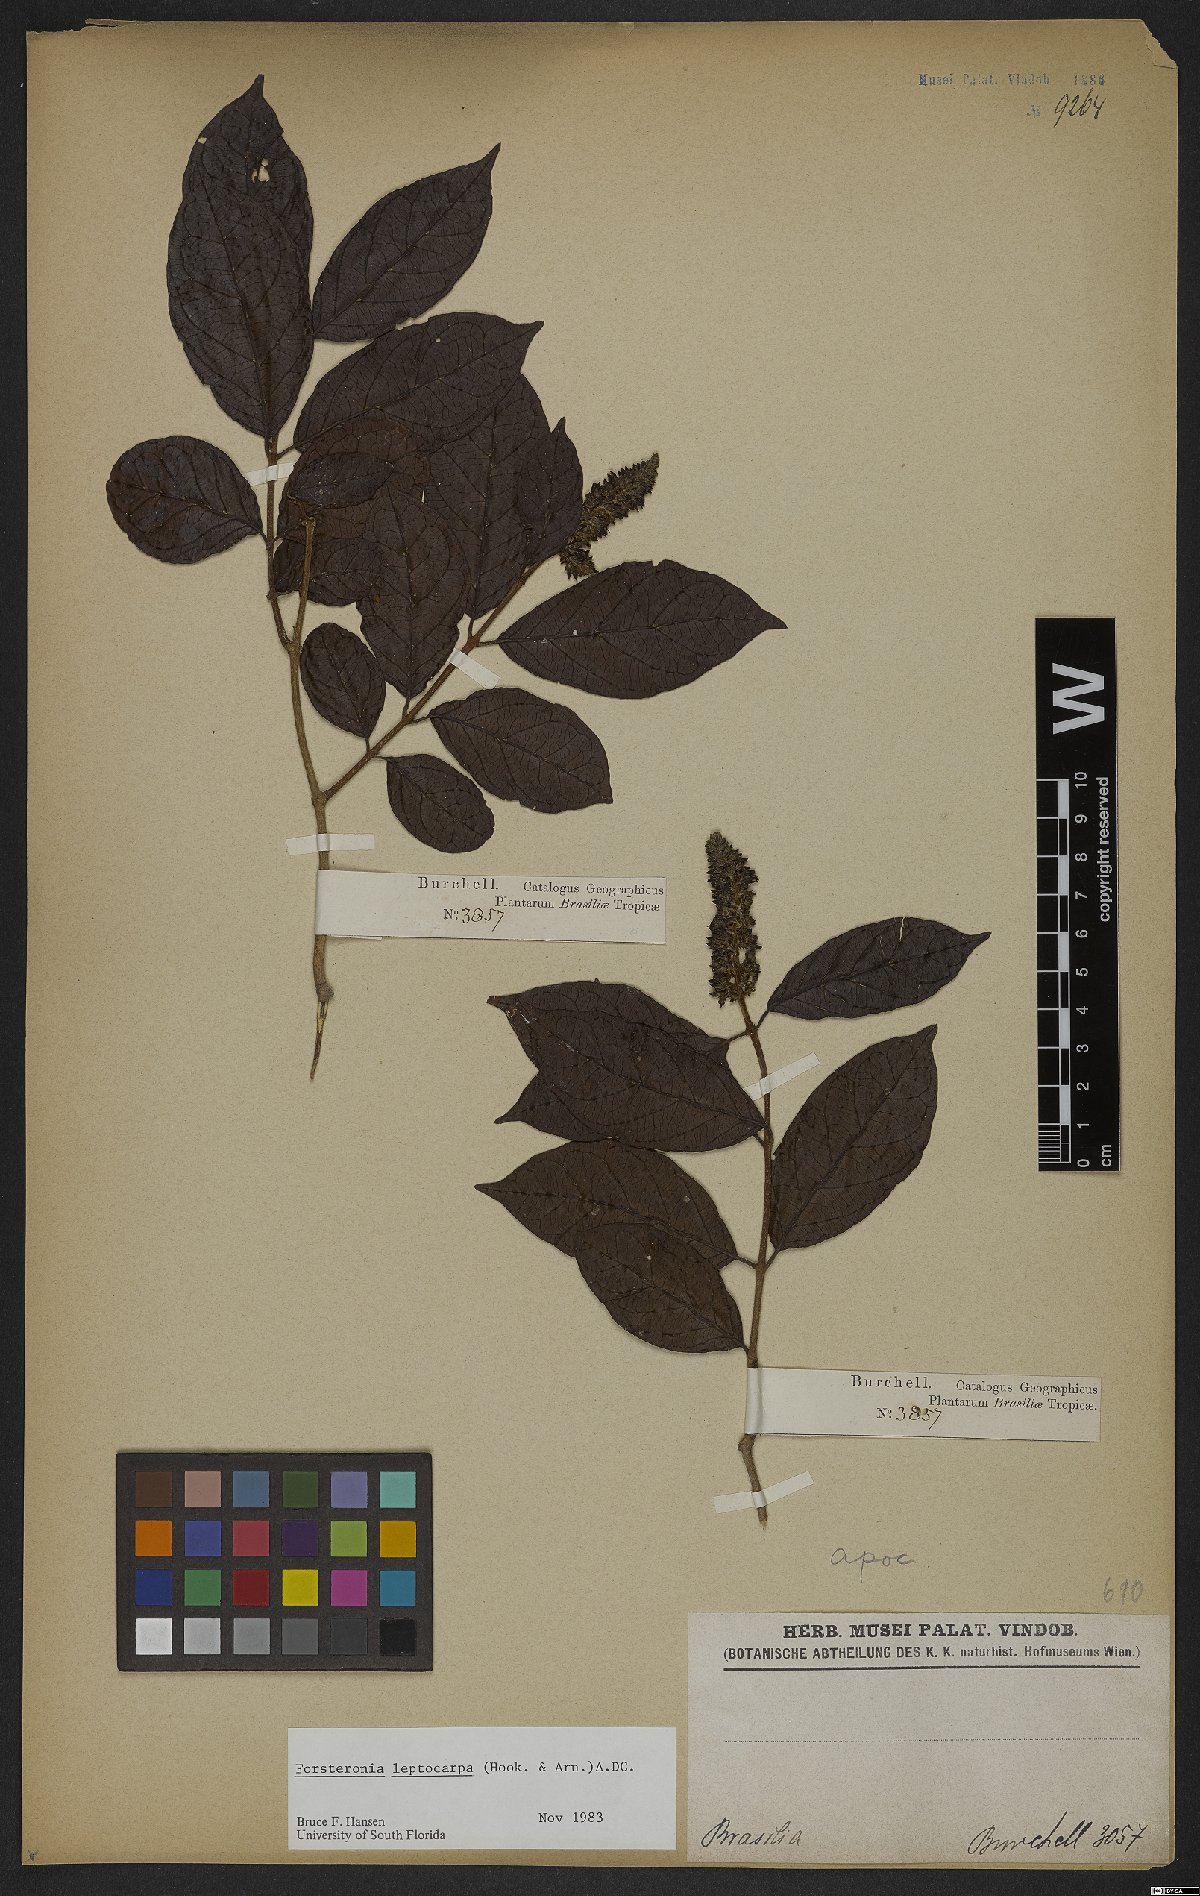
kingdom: Plantae
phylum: Tracheophyta
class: Magnoliopsida
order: Gentianales
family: Apocynaceae
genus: Forsteronia
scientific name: Forsteronia leptocarpa
